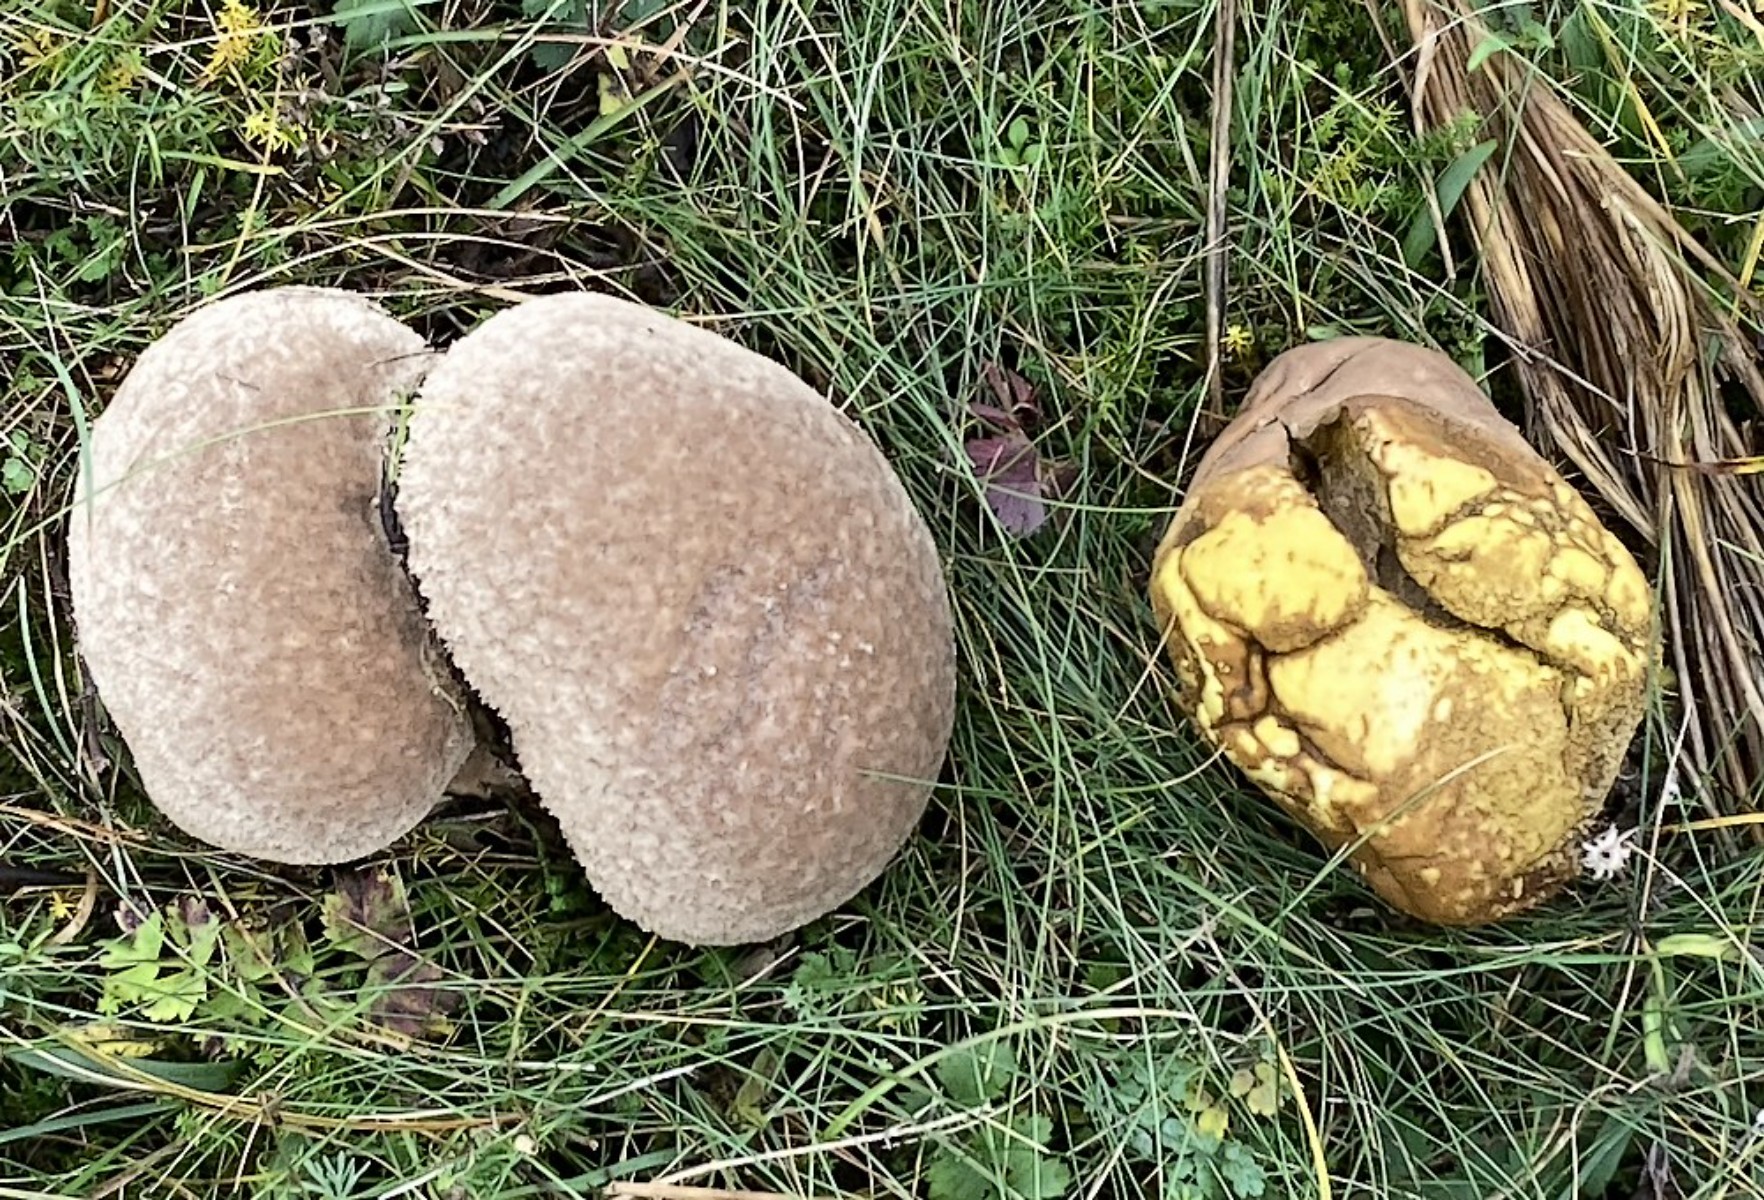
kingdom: Fungi
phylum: Basidiomycota
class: Agaricomycetes
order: Agaricales
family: Lycoperdaceae
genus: Bovistella
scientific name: Bovistella utriformis
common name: skællet støvbold
